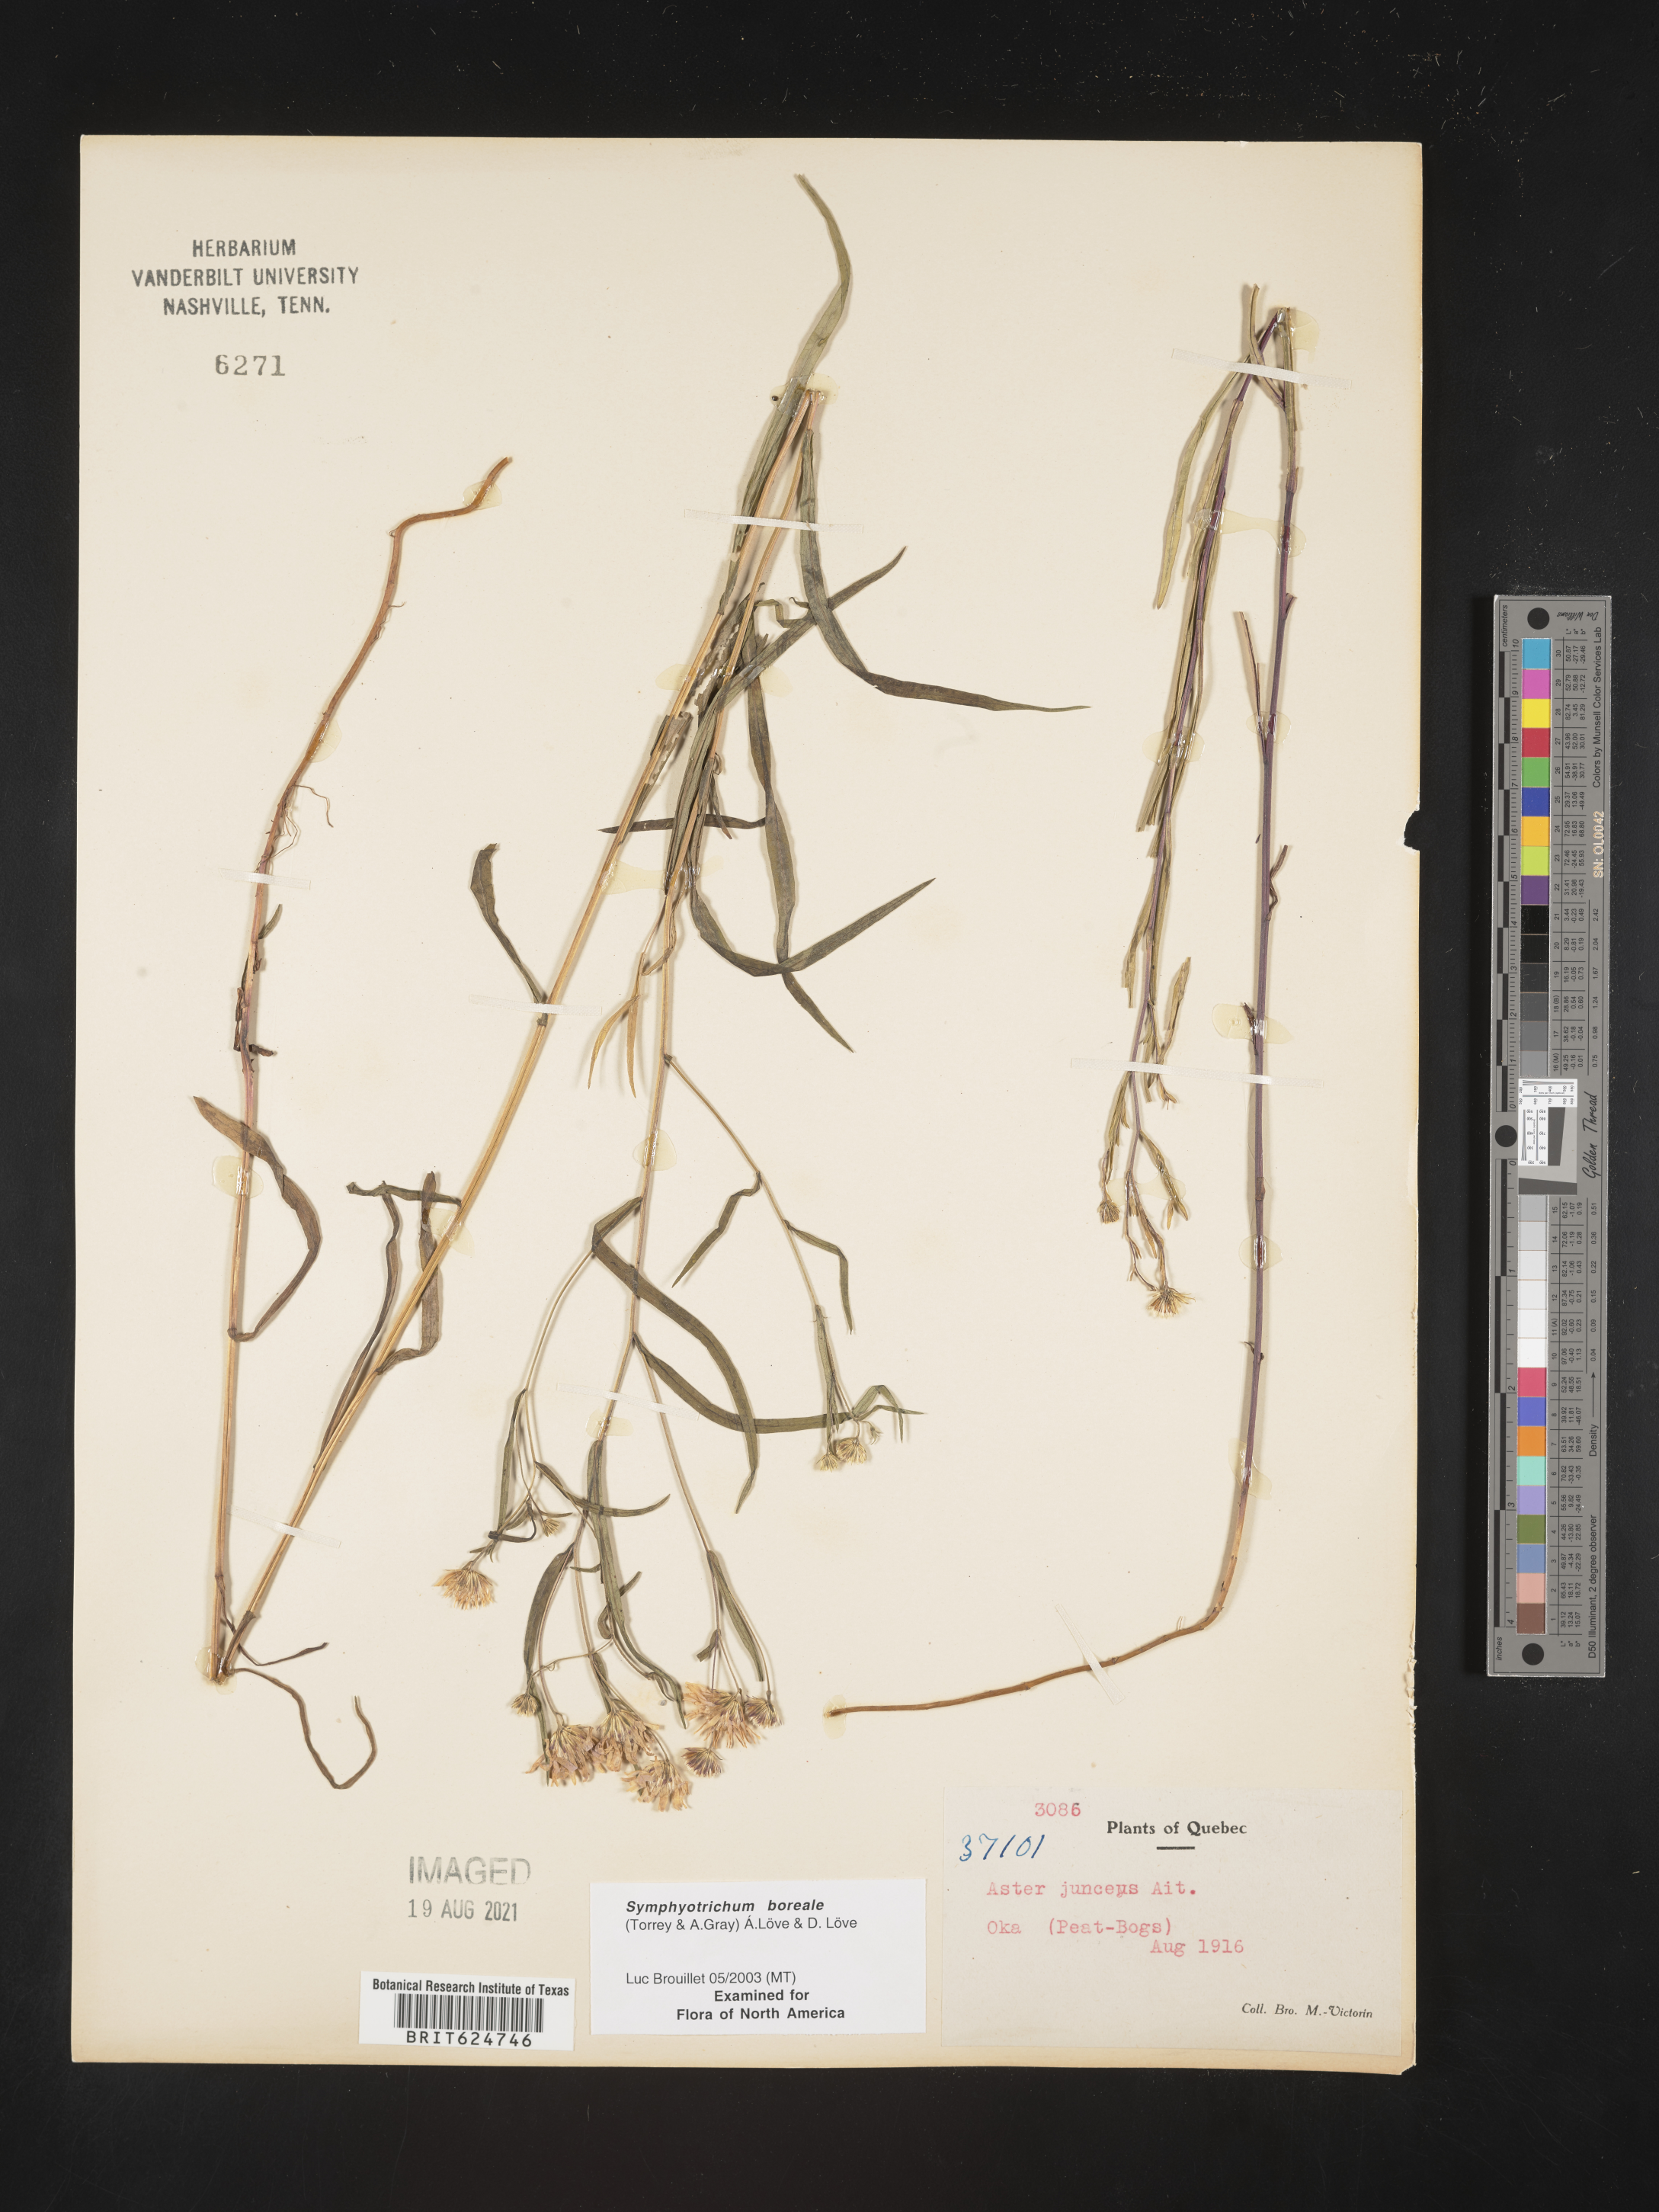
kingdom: Plantae
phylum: Tracheophyta
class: Magnoliopsida
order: Asterales
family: Asteraceae
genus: Symphyotrichum
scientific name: Symphyotrichum boreale
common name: Northern bog aster
